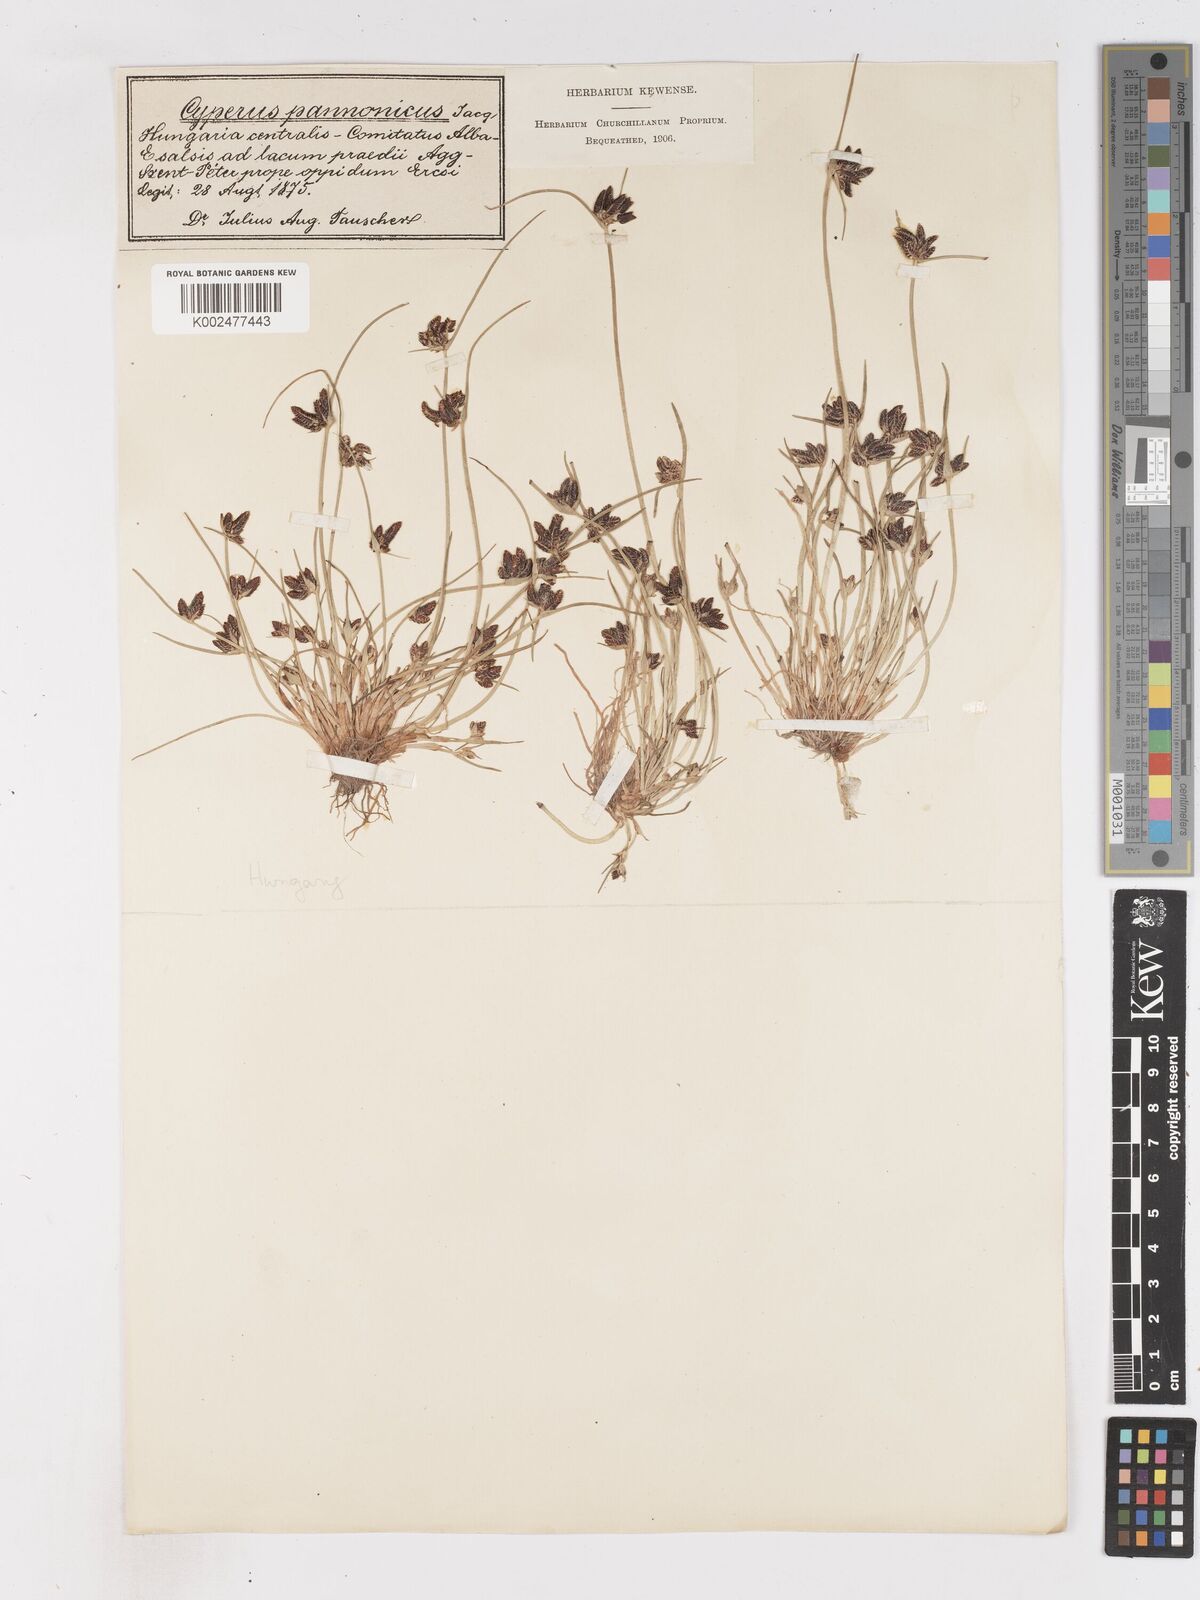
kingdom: Plantae
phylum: Tracheophyta
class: Liliopsida
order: Poales
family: Cyperaceae
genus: Cyperus
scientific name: Cyperus pannonicus
